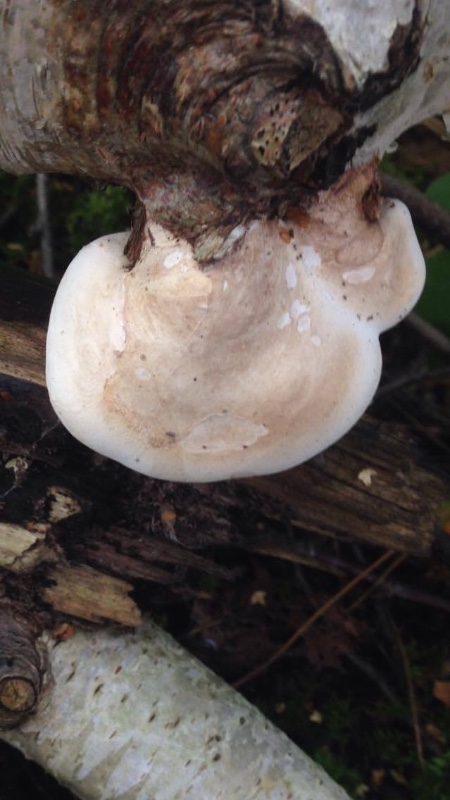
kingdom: Fungi
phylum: Basidiomycota
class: Agaricomycetes
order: Polyporales
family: Fomitopsidaceae
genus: Fomitopsis
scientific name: Fomitopsis betulina
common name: birkeporesvamp
